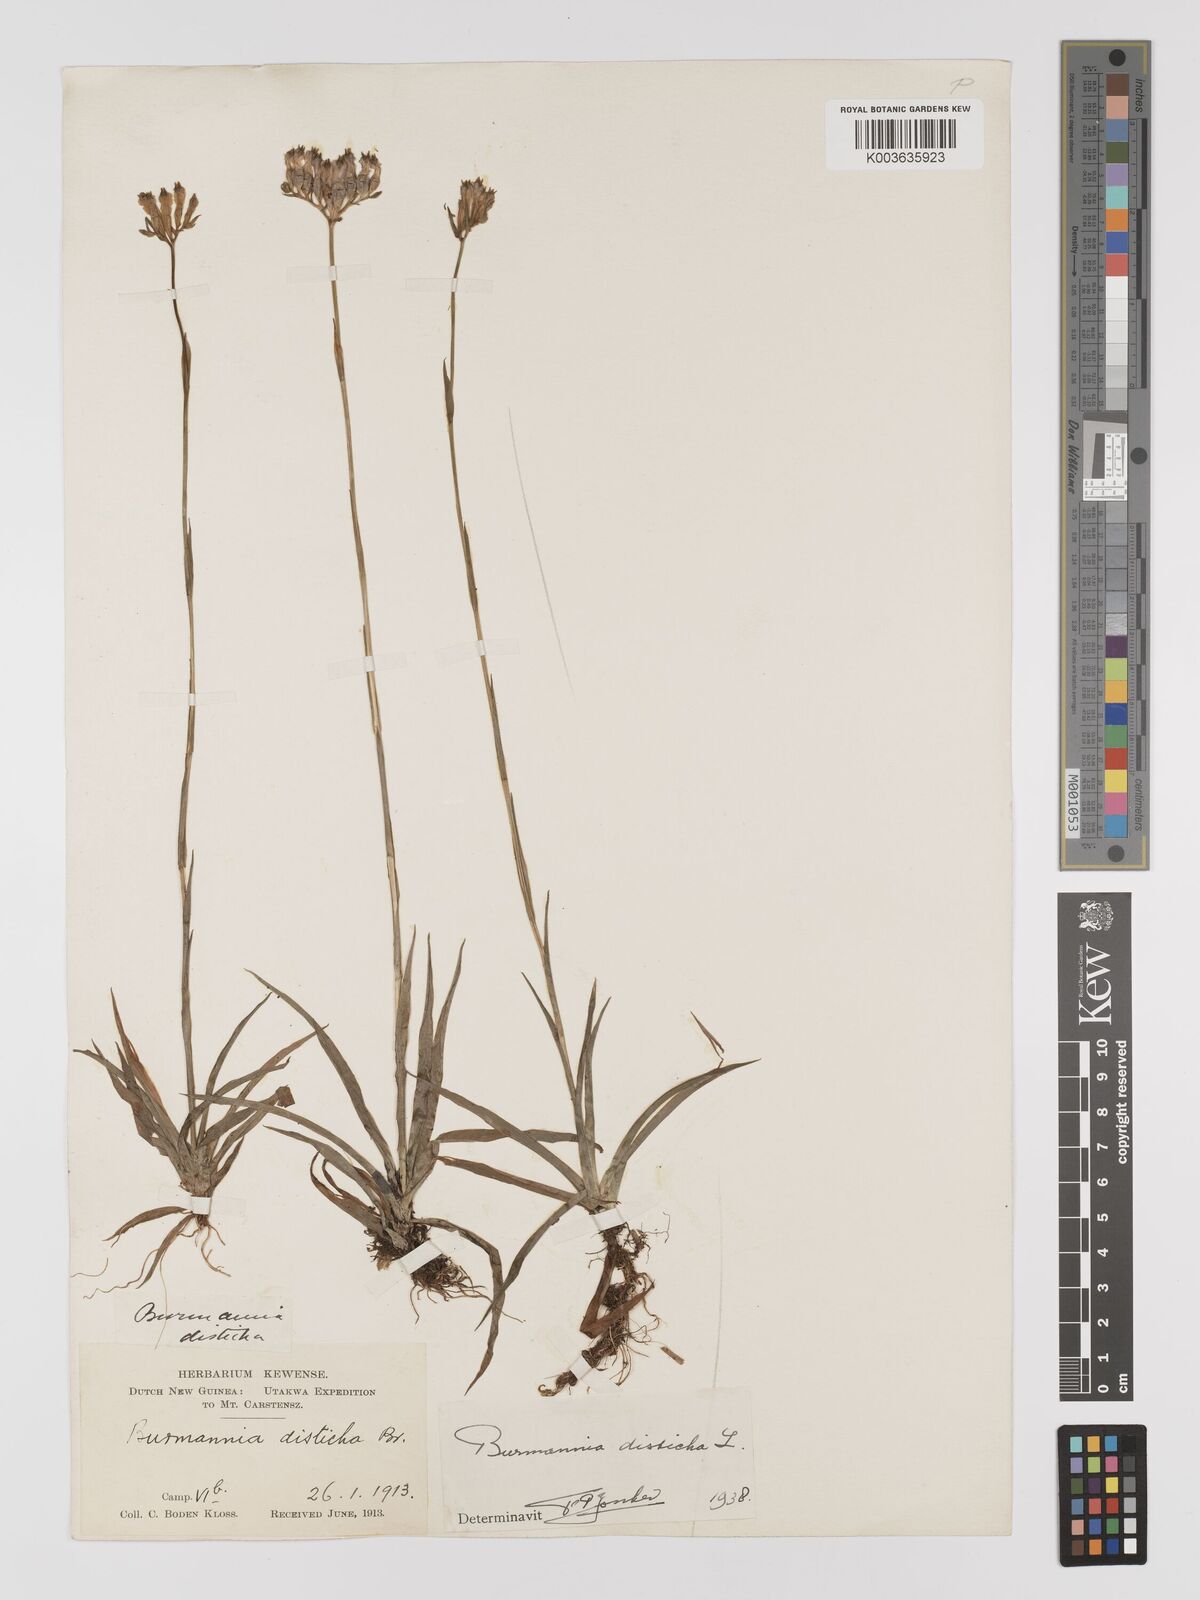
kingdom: Plantae
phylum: Tracheophyta
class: Liliopsida
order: Dioscoreales
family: Burmanniaceae
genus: Burmannia
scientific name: Burmannia disticha
